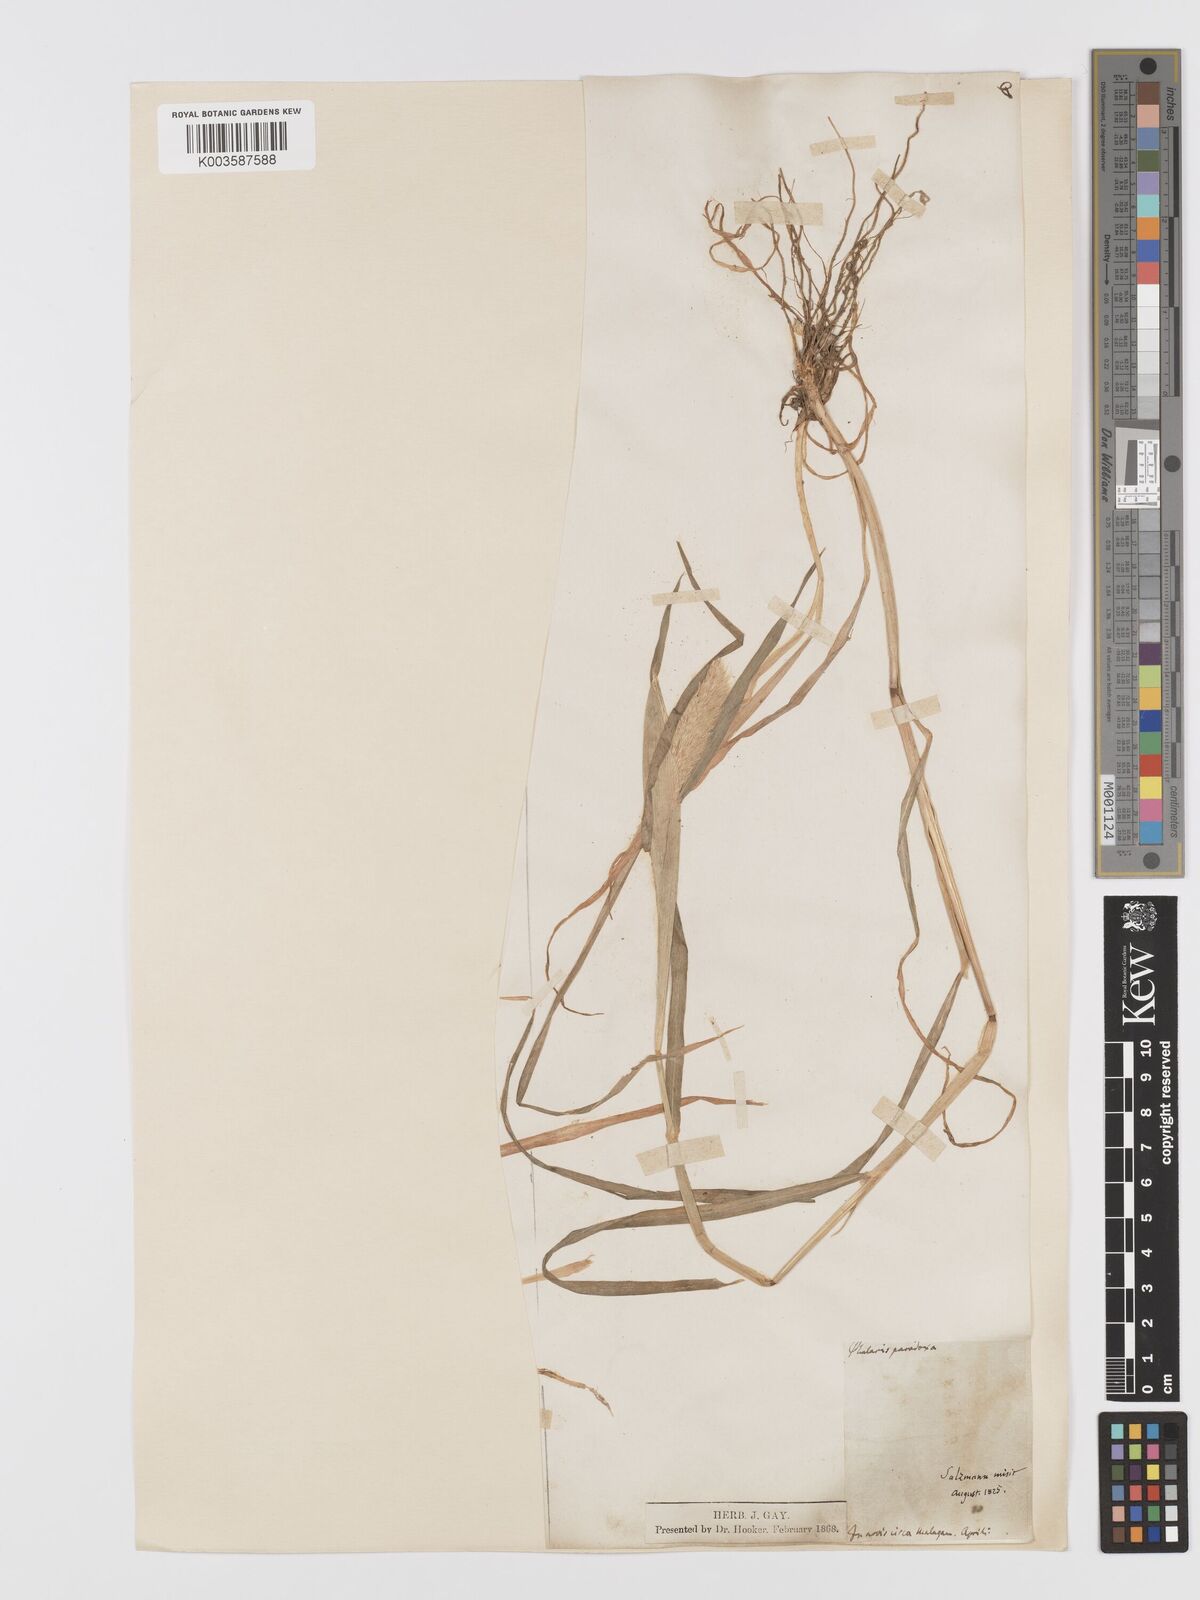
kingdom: Plantae
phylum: Tracheophyta
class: Liliopsida
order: Poales
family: Poaceae
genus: Phalaris
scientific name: Phalaris paradoxa
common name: Awned canary-grass
